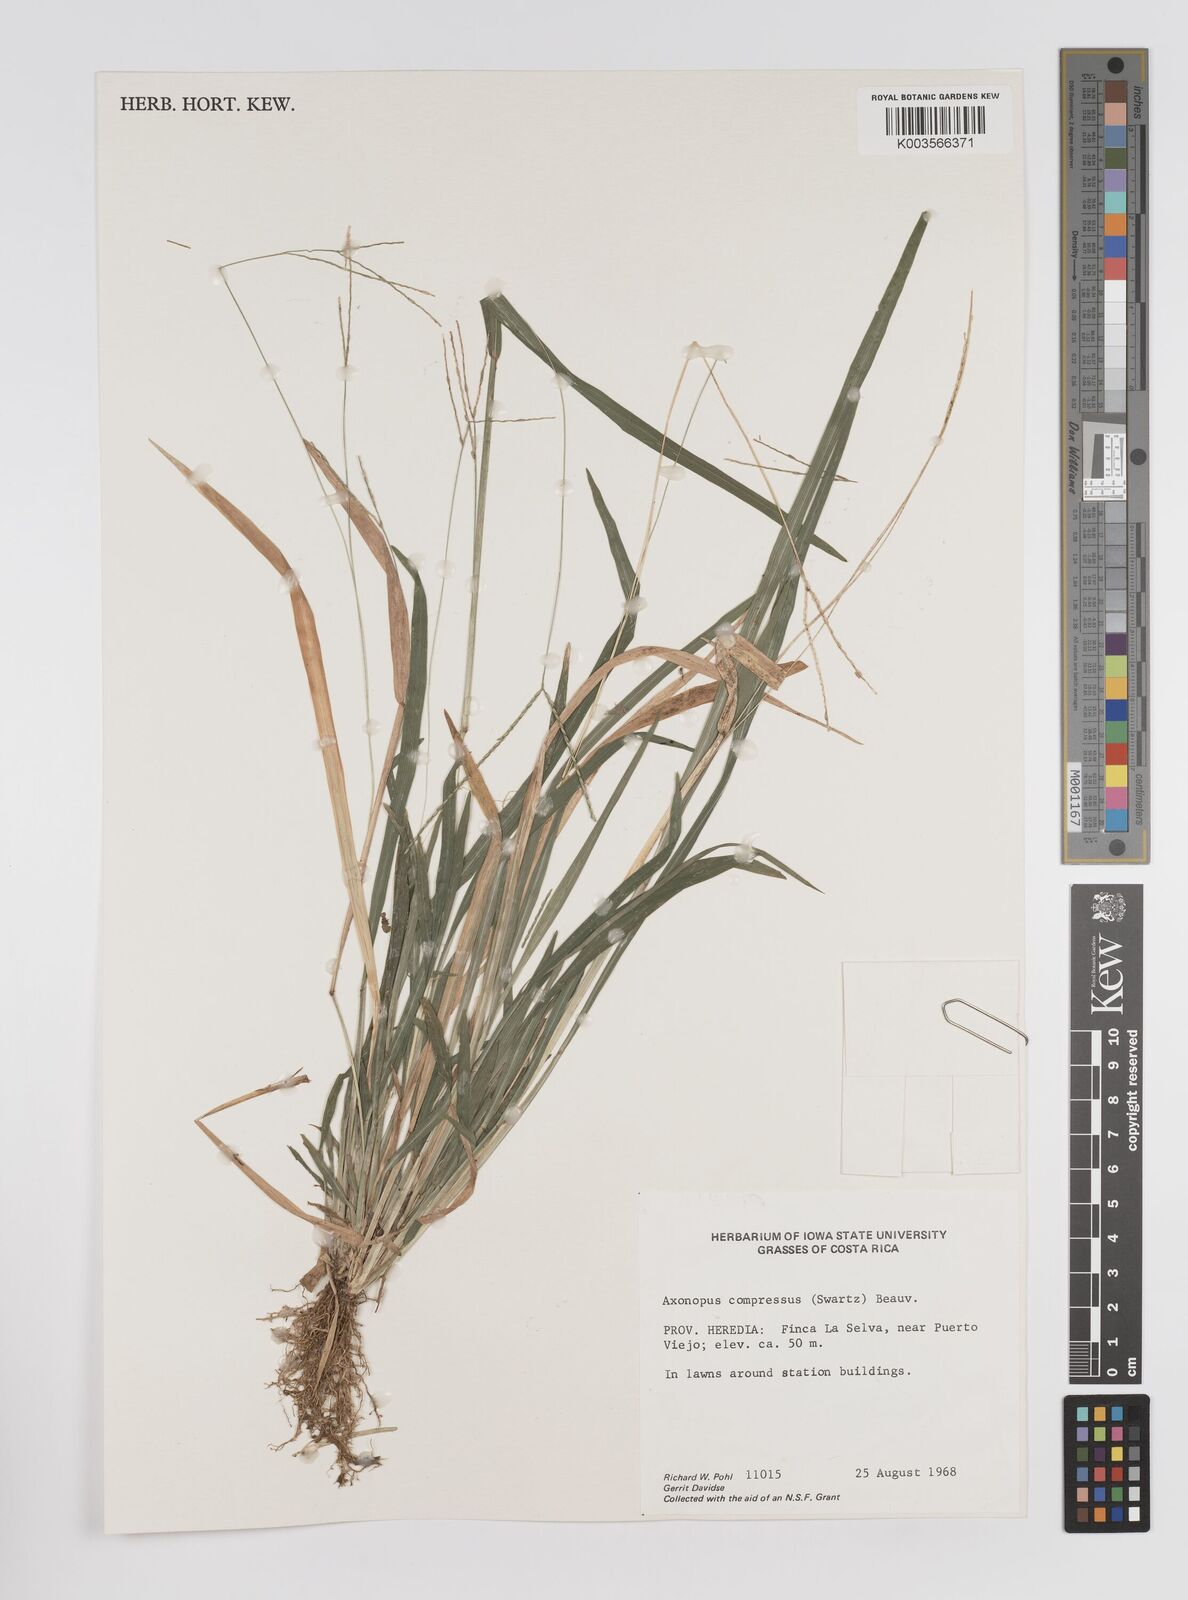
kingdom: Plantae
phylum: Tracheophyta
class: Liliopsida
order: Poales
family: Poaceae
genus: Axonopus
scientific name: Axonopus compressus
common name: American carpet grass
